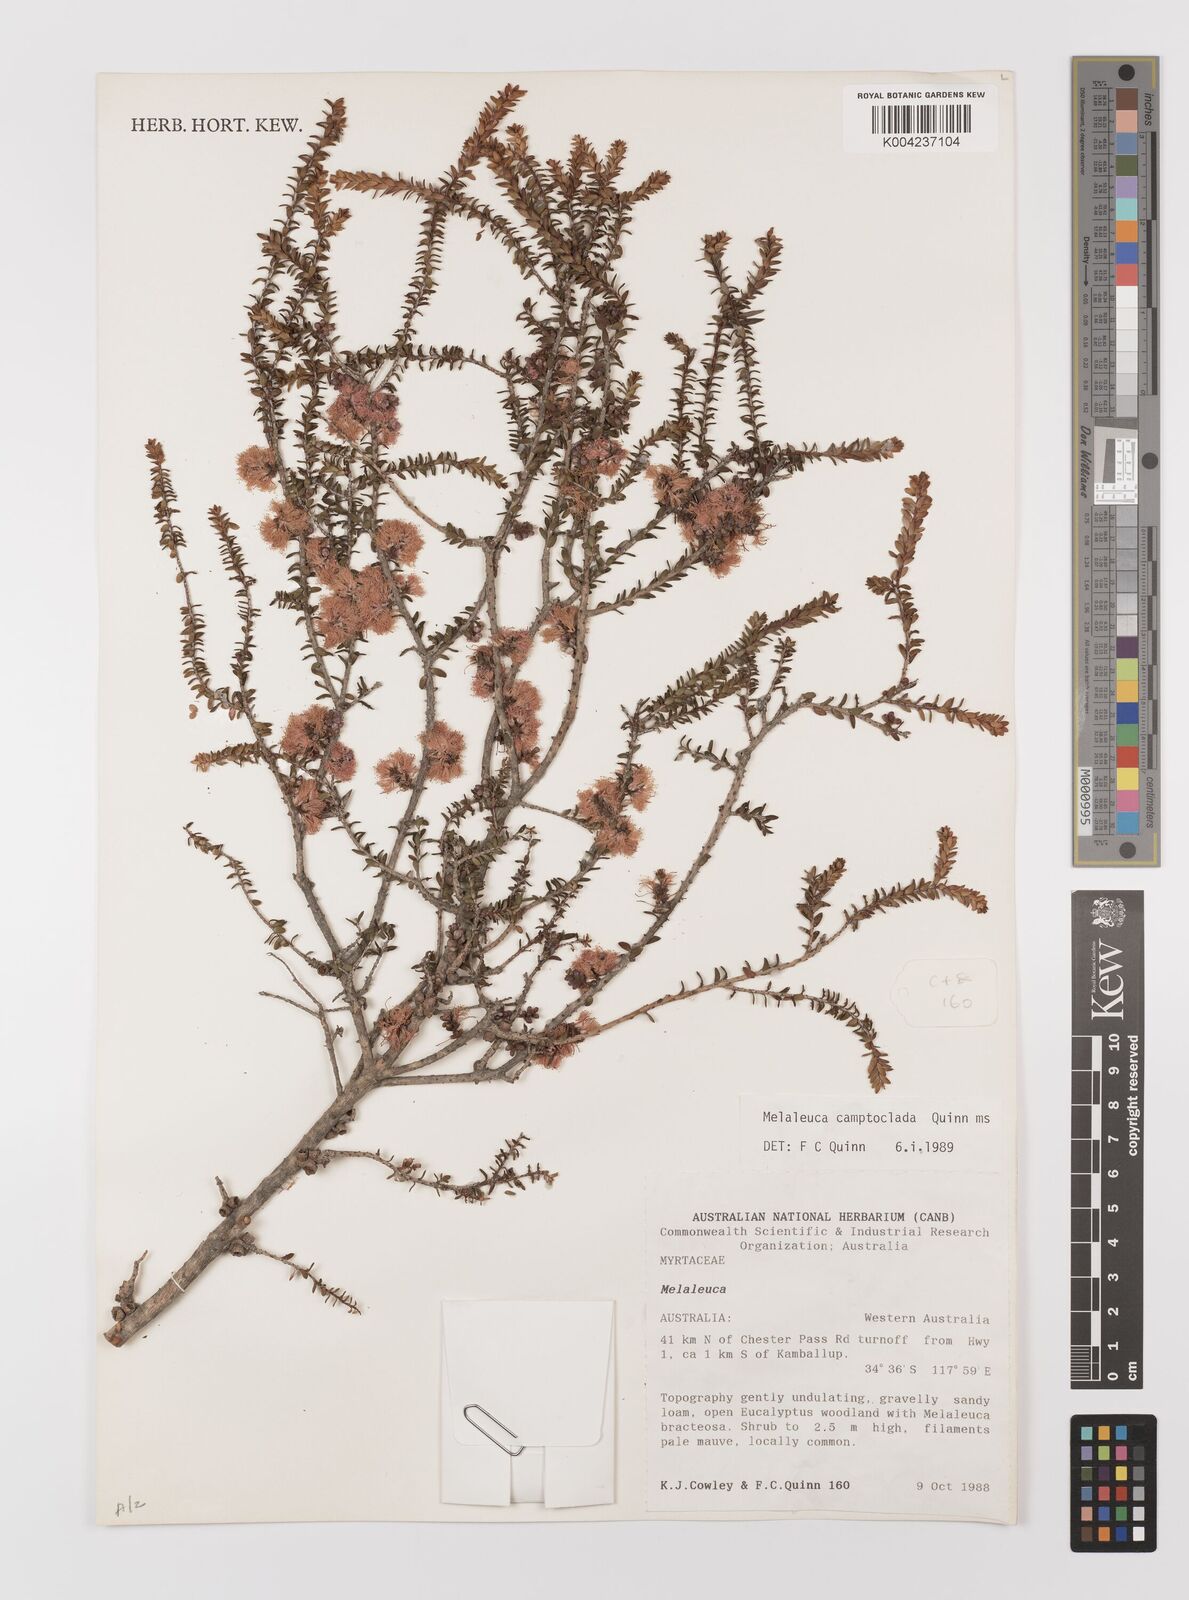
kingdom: Plantae
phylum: Tracheophyta
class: Magnoliopsida
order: Myrtales
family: Myrtaceae
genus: Melaleuca
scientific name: Melaleuca camptoclada
